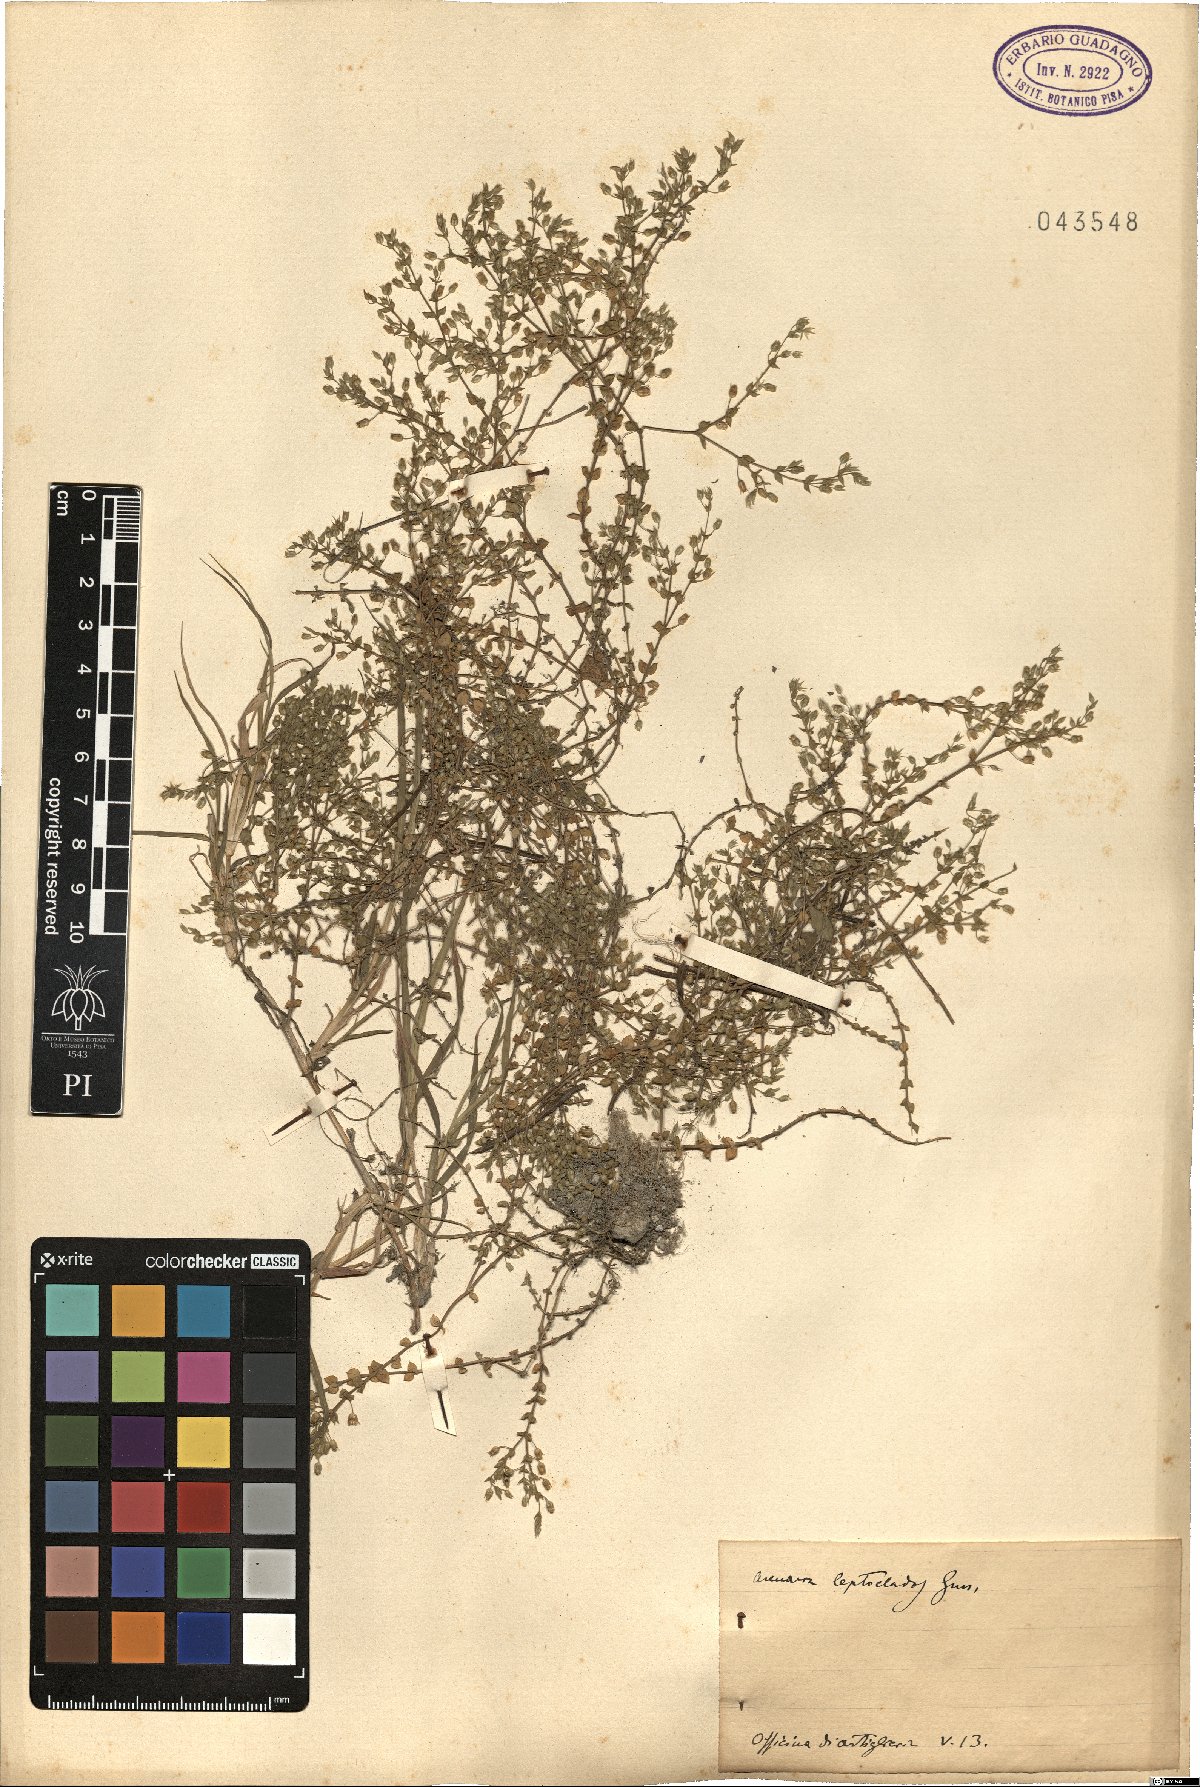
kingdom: Plantae
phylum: Tracheophyta
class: Magnoliopsida
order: Caryophyllales
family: Caryophyllaceae
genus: Arenaria
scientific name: Arenaria leptoclados
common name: Thyme-leaved sandwort
